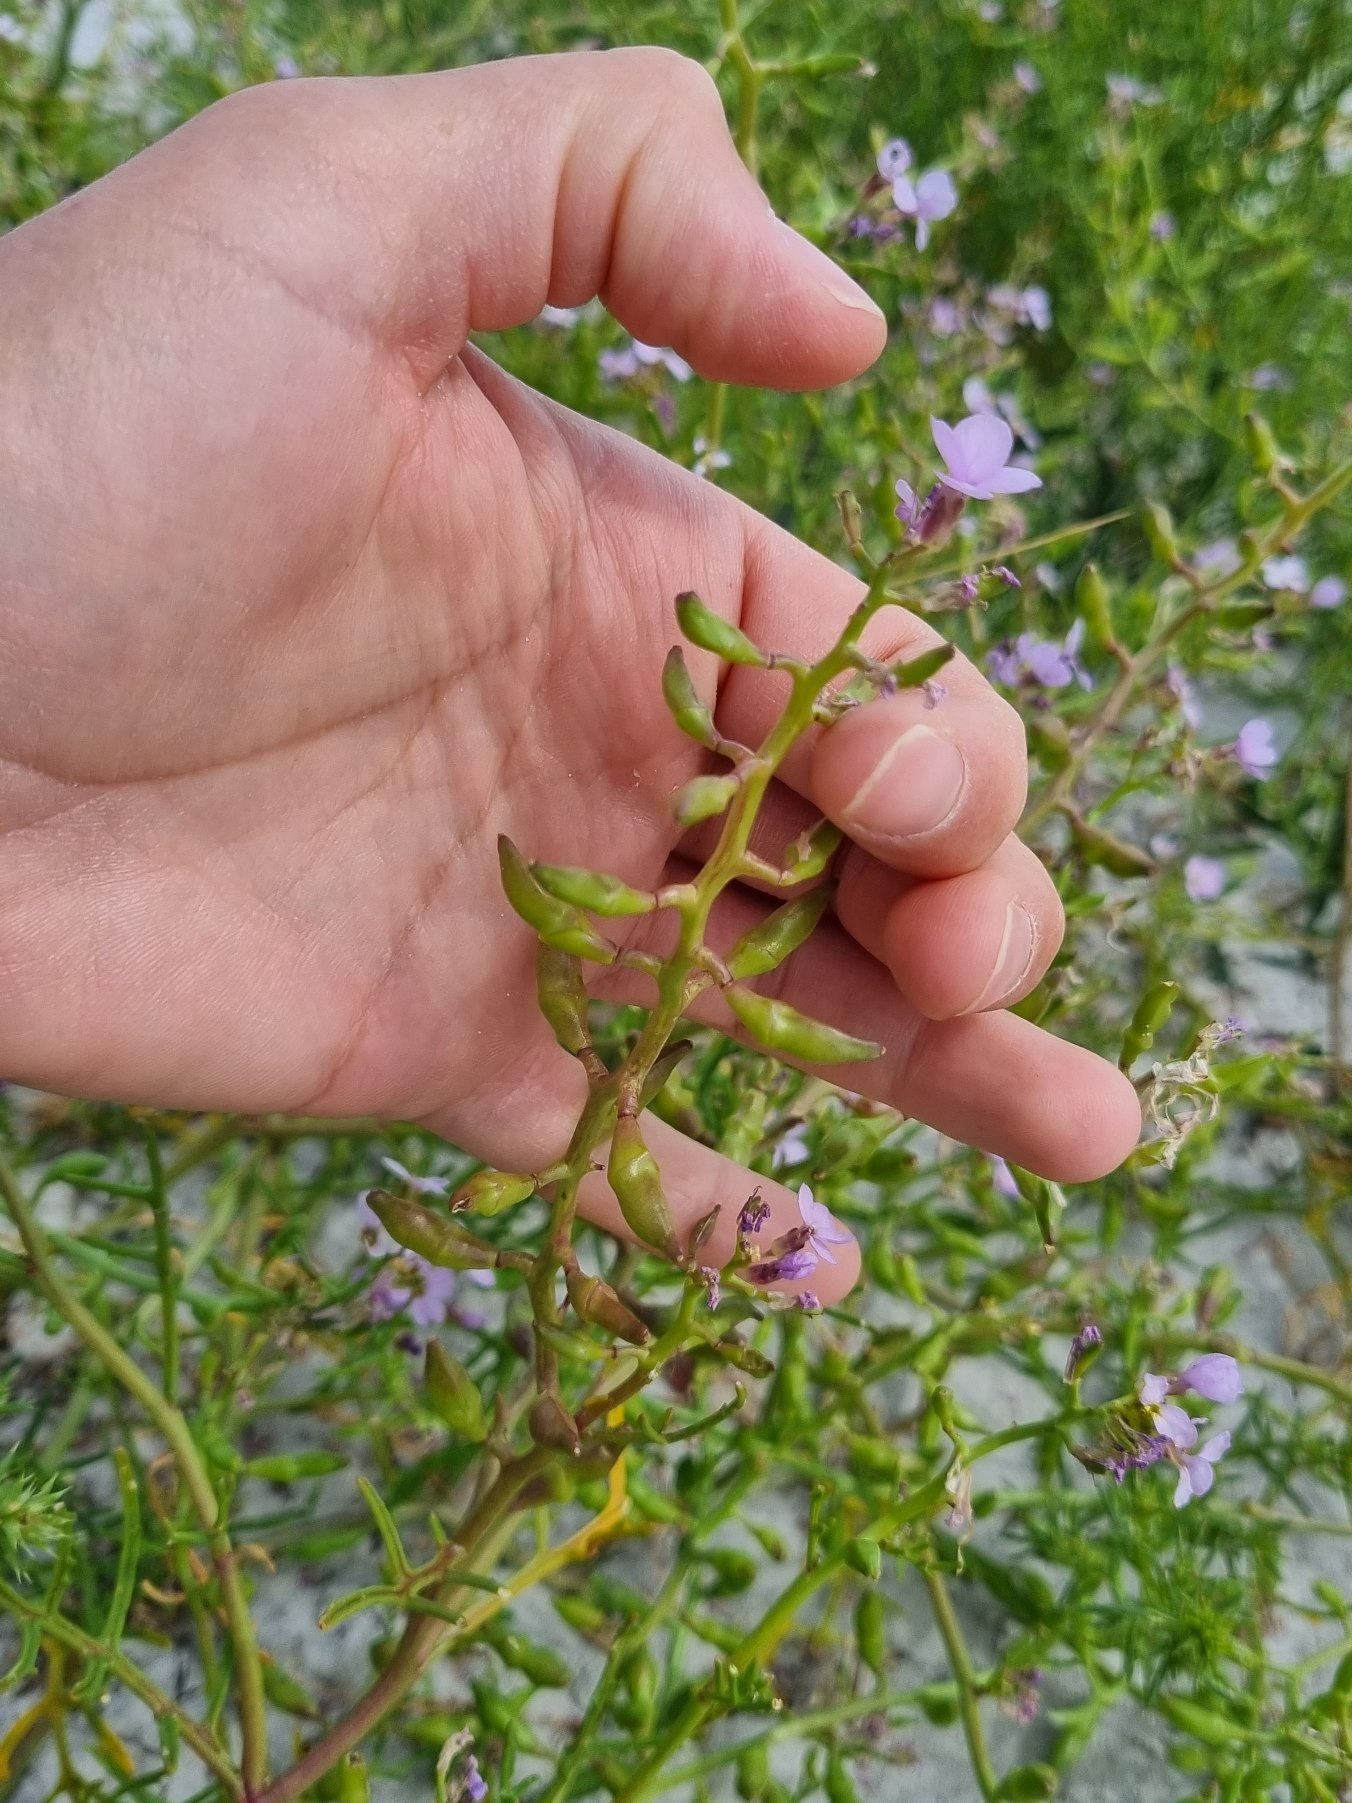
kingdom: Plantae
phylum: Tracheophyta
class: Magnoliopsida
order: Brassicales
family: Brassicaceae
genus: Cakile
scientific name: Cakile maritima
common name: Strandsennep
